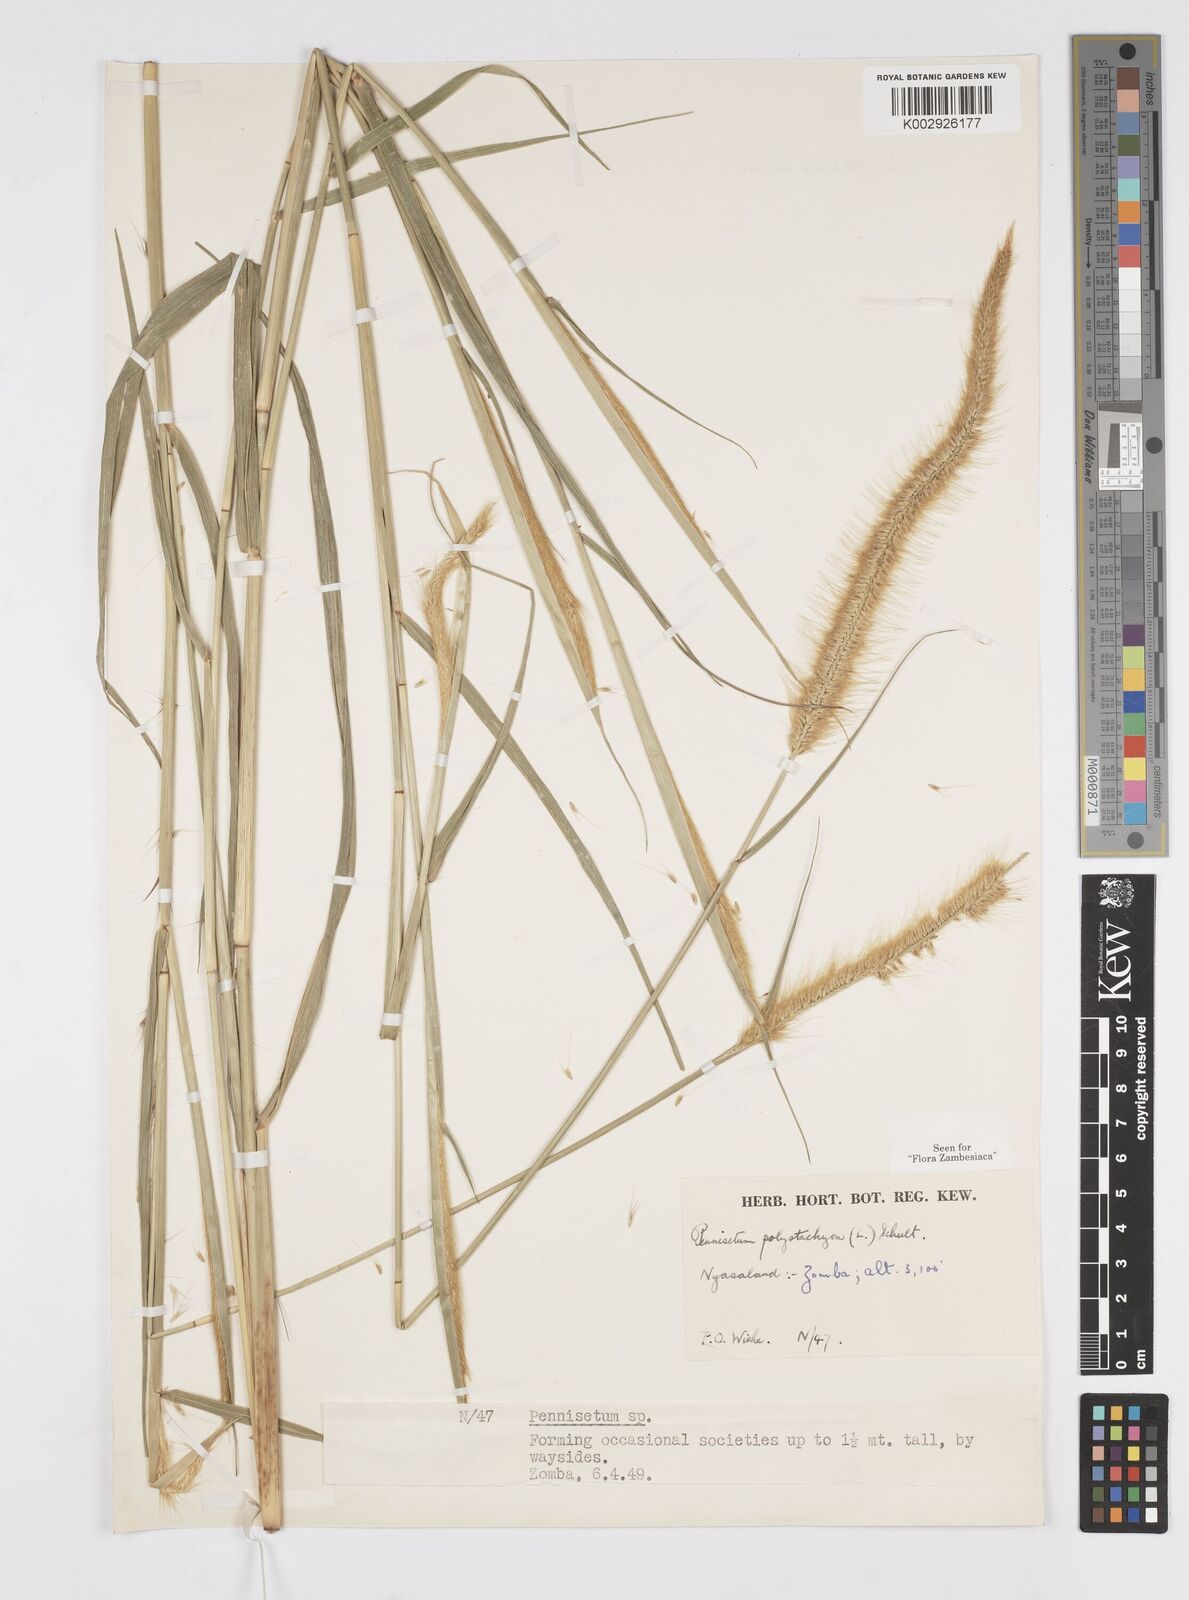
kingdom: Plantae
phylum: Tracheophyta
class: Liliopsida
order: Poales
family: Poaceae
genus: Setaria
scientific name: Setaria parviflora
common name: Knotroot bristle-grass
